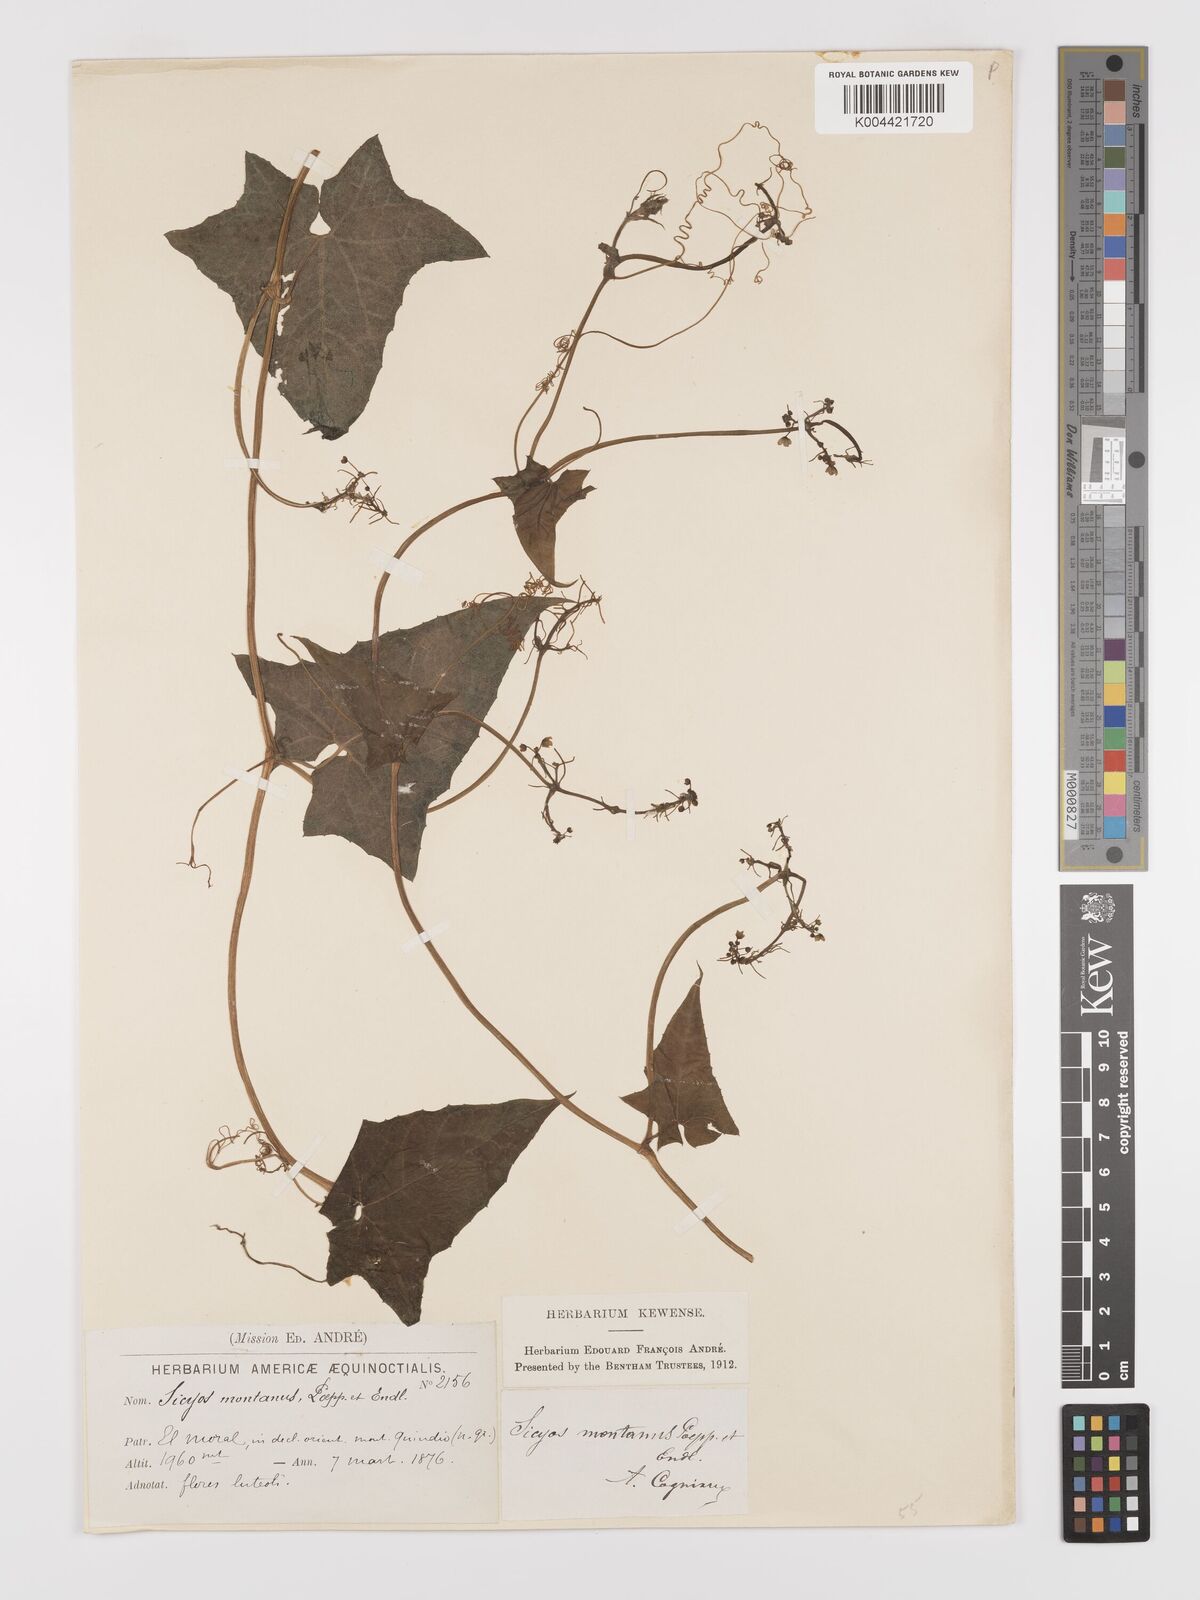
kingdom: Plantae
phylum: Tracheophyta
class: Magnoliopsida
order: Cucurbitales
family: Cucurbitaceae
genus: Sicyos
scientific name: Sicyos
